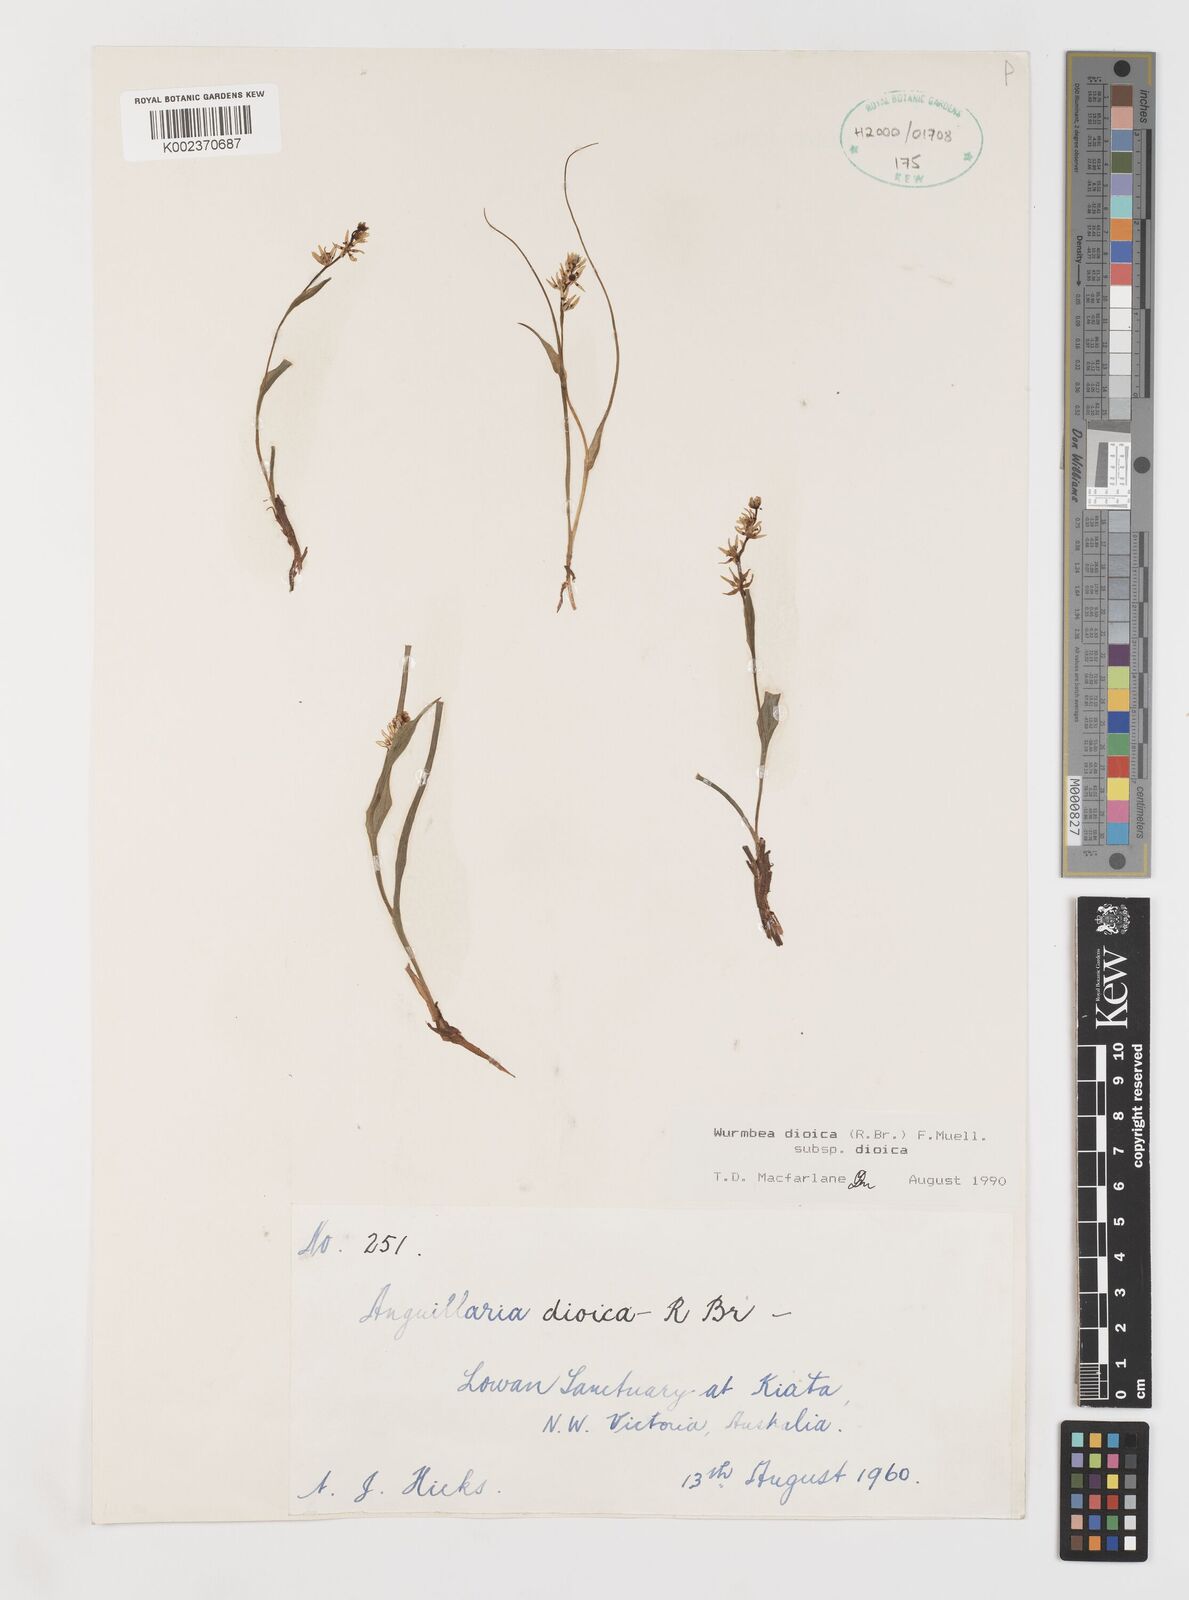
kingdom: Plantae
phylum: Tracheophyta
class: Liliopsida
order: Liliales
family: Colchicaceae
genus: Wurmbea
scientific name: Wurmbea dioica
